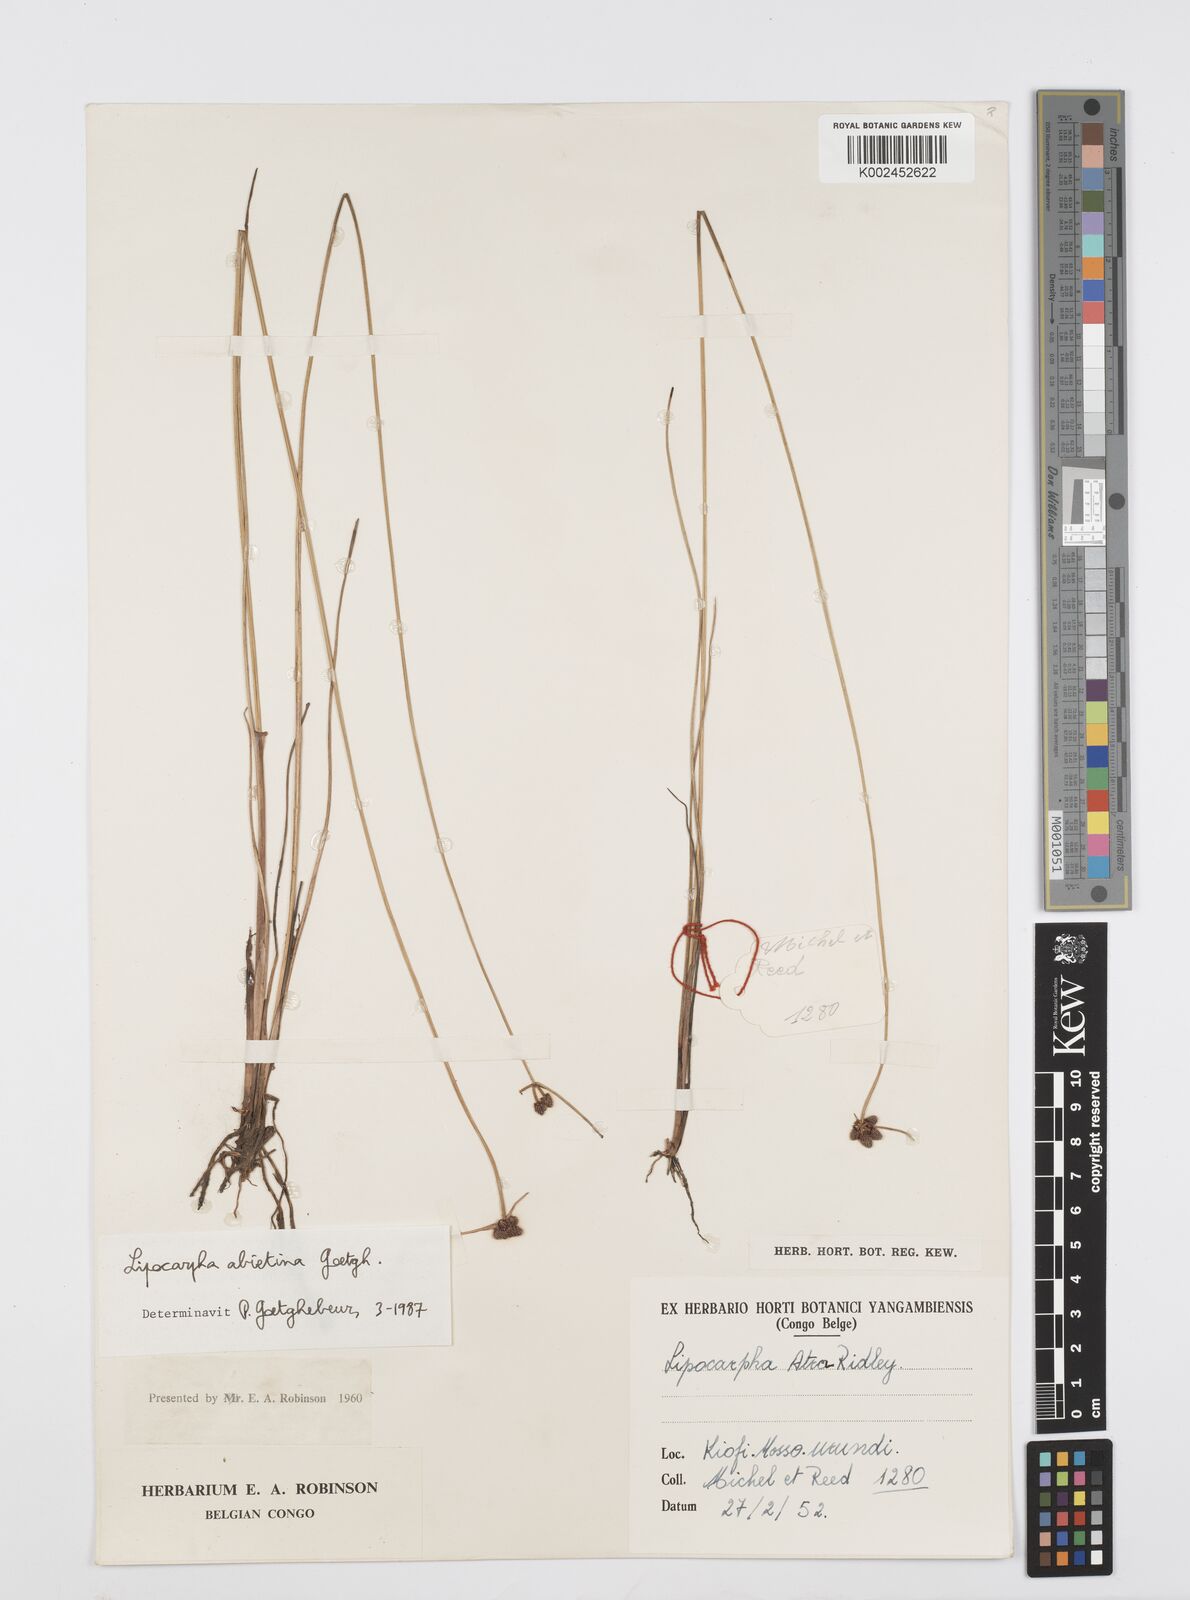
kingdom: Plantae
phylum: Tracheophyta
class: Liliopsida
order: Poales
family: Cyperaceae
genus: Cyperus
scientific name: Cyperus lipoater
